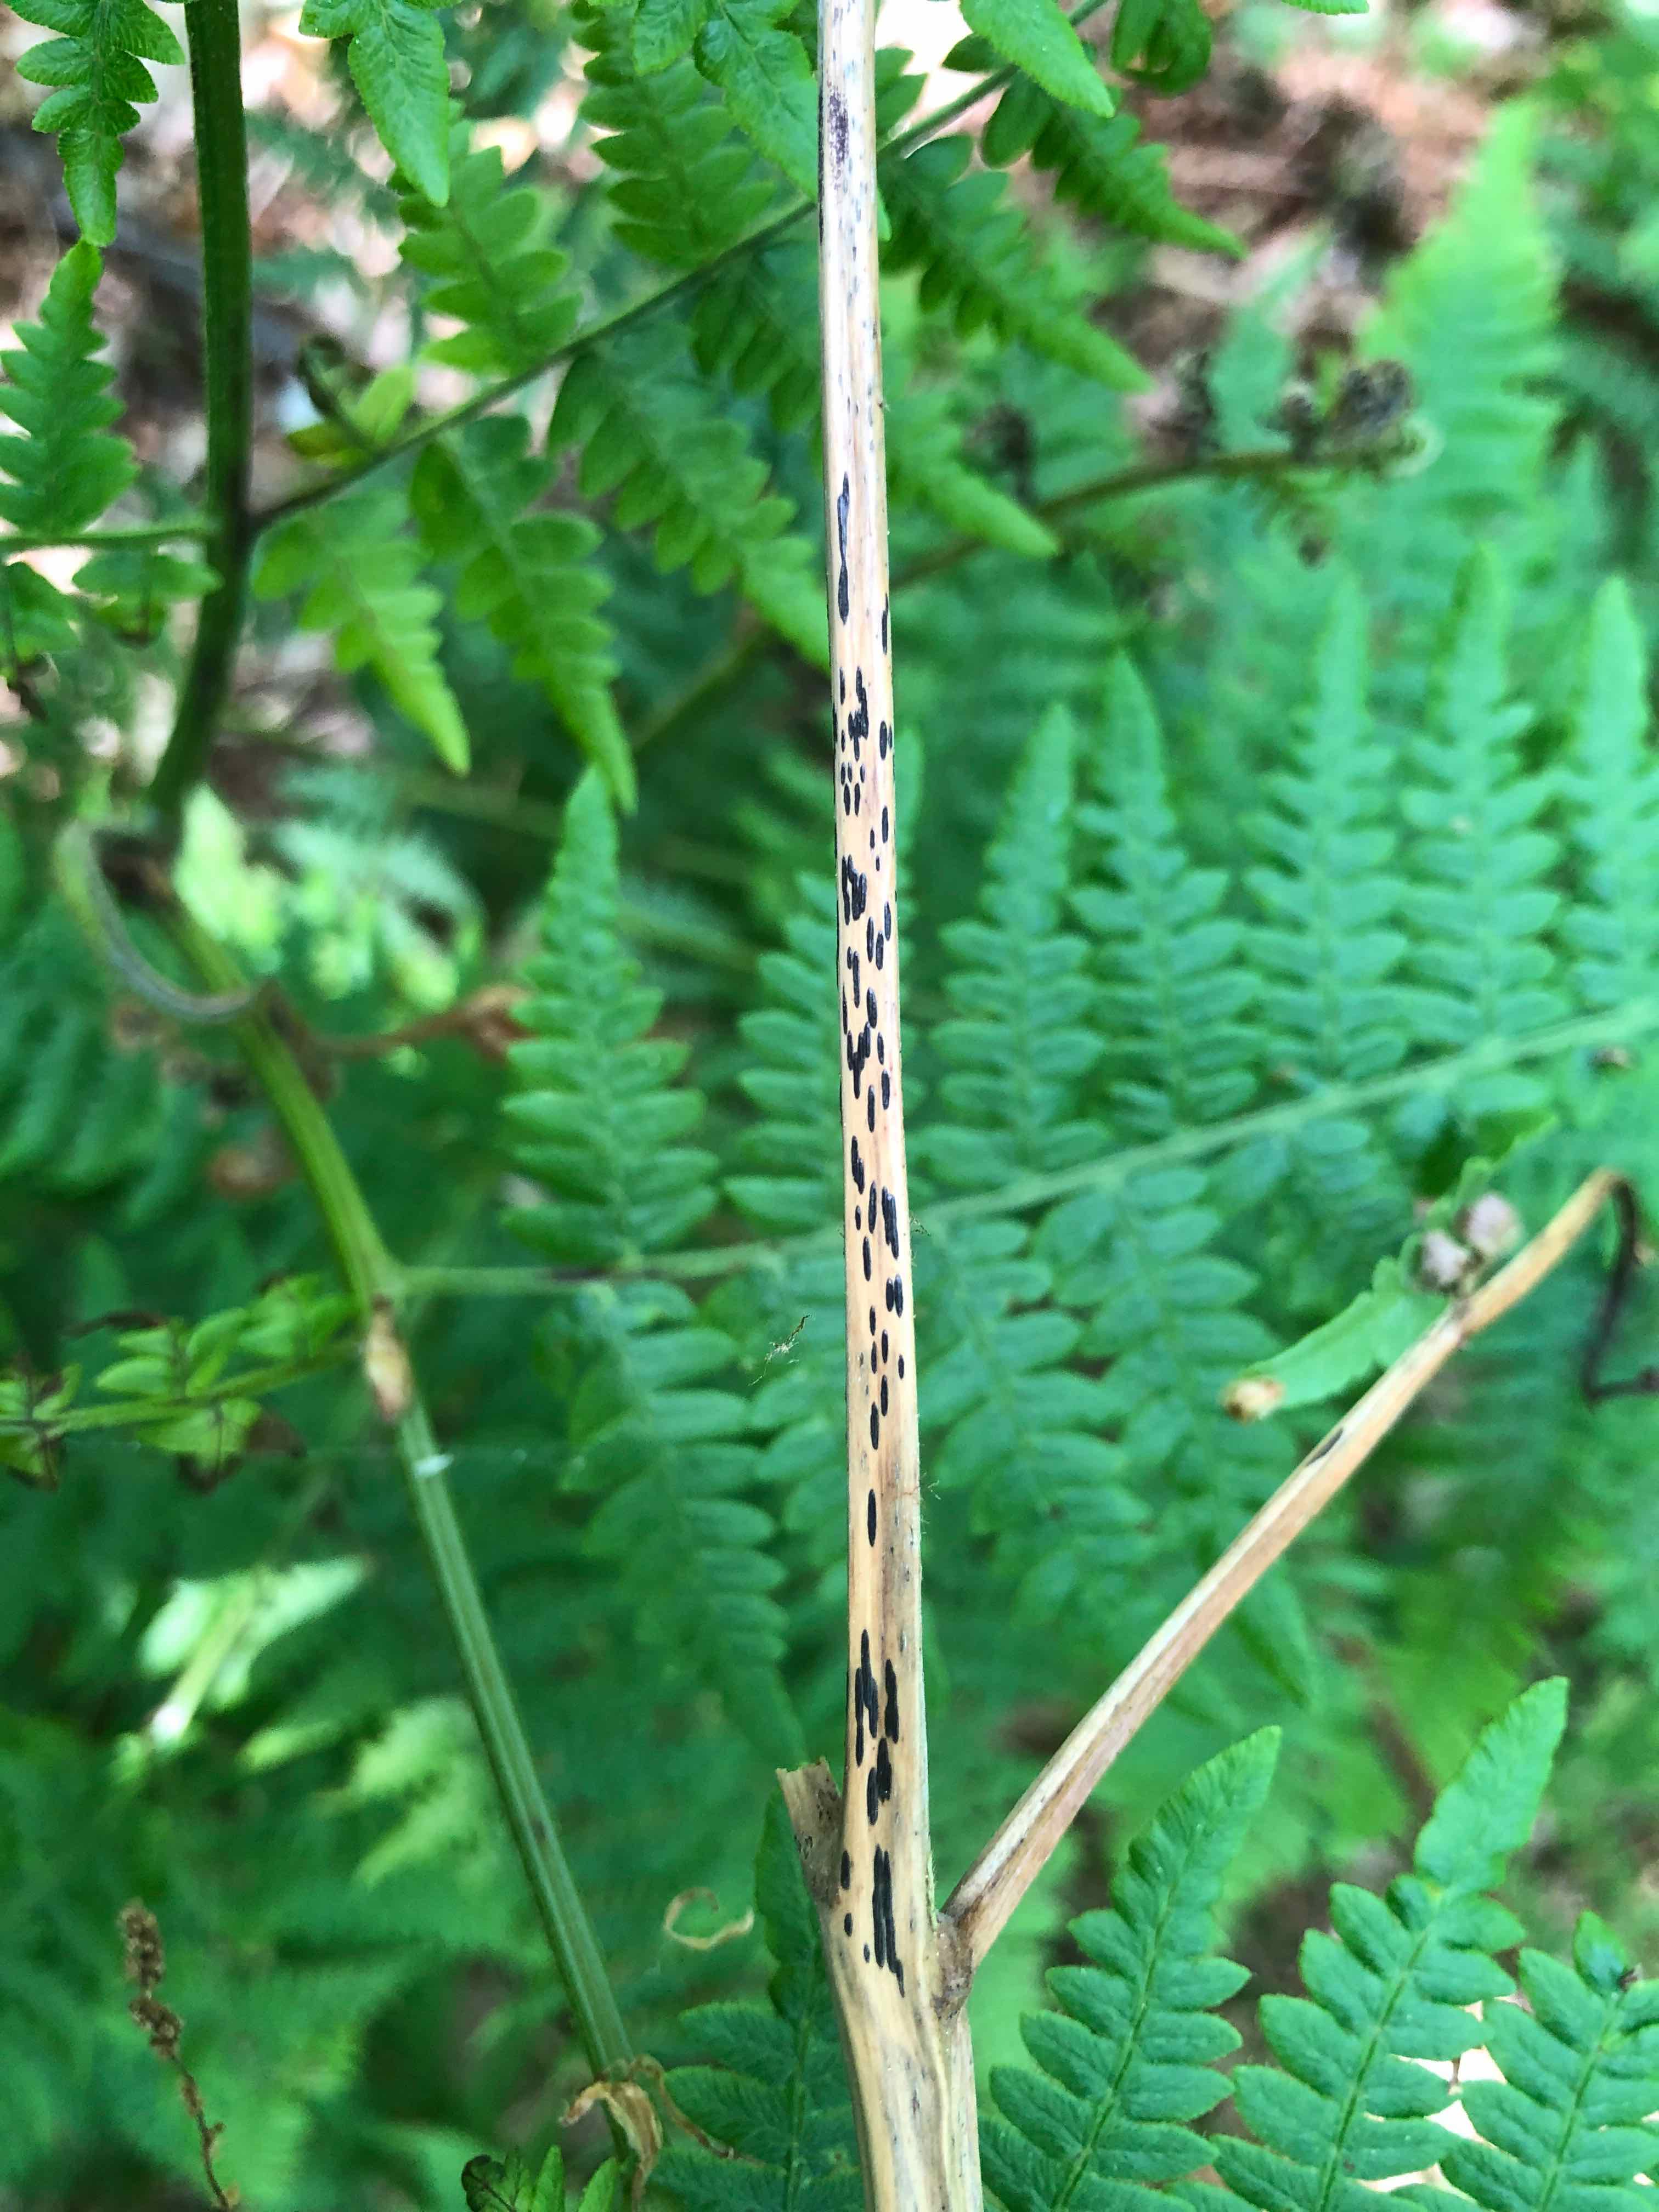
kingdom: Fungi
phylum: Ascomycota
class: Dothideomycetes
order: Pleosporales
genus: Rhopographus
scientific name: Rhopographus filicinus
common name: Bracken map
